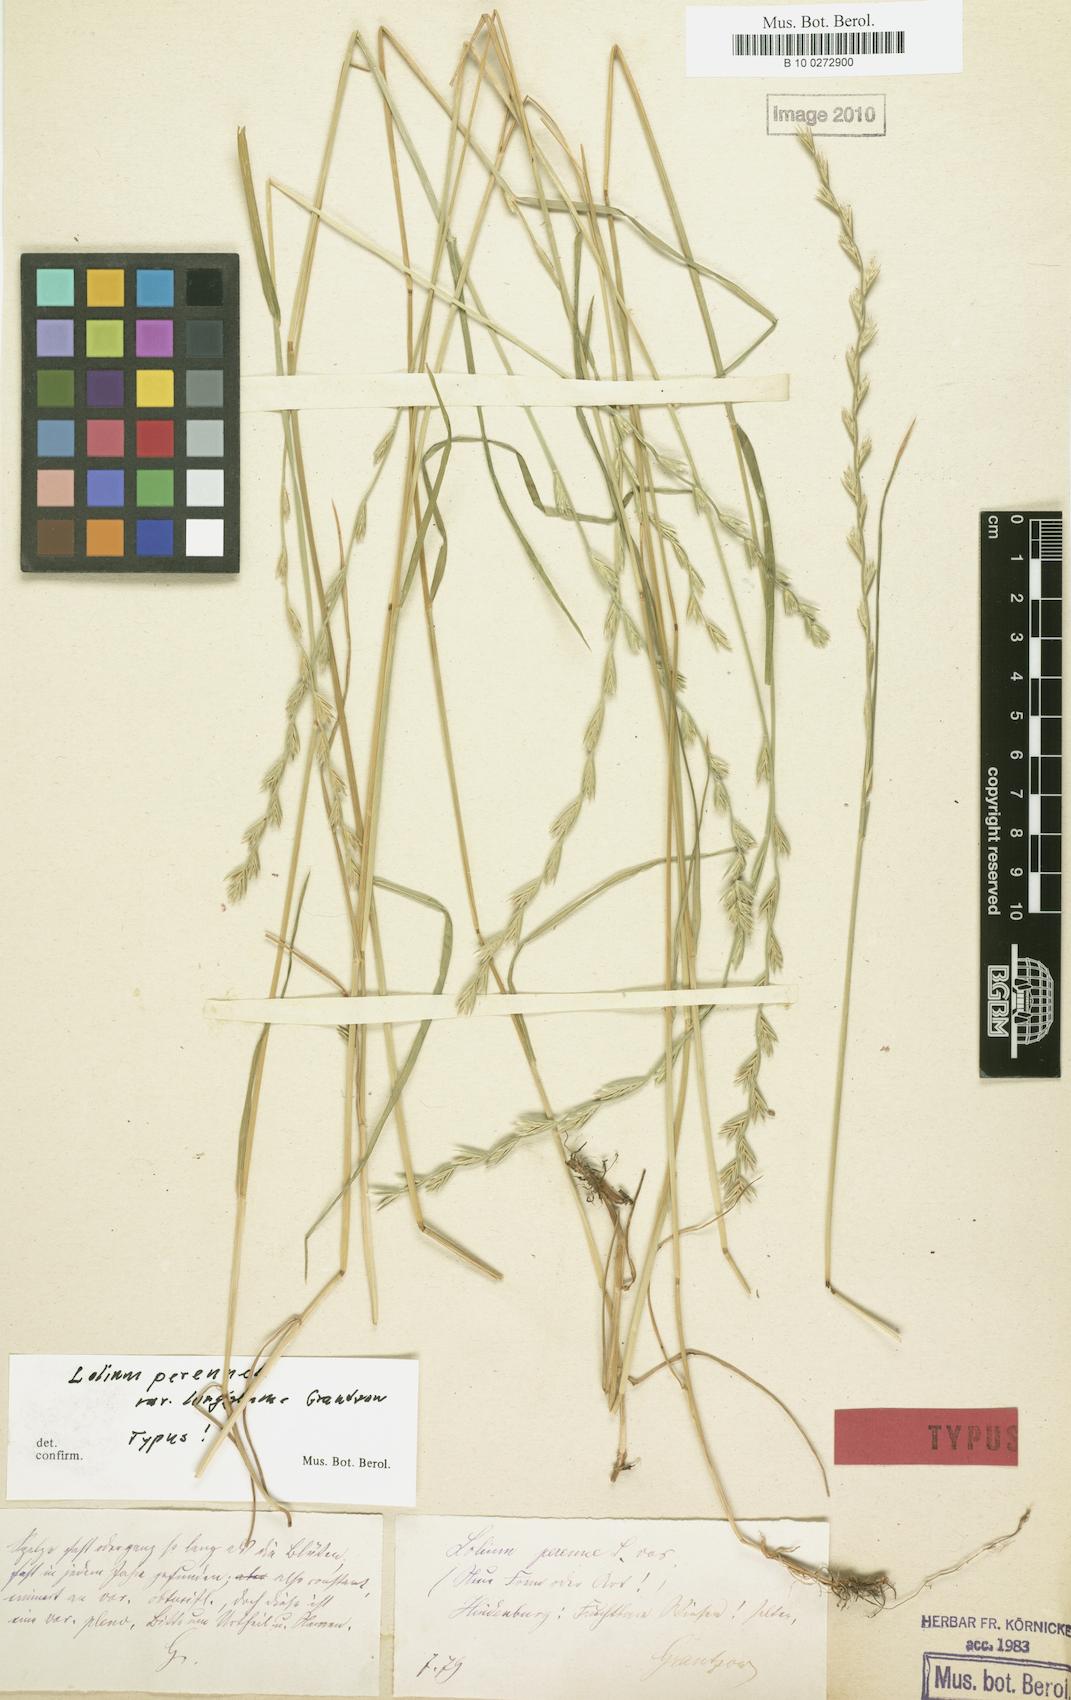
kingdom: Plantae
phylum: Tracheophyta
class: Liliopsida
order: Poales
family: Poaceae
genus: Lolium
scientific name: Lolium perenne
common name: Perennial ryegrass
